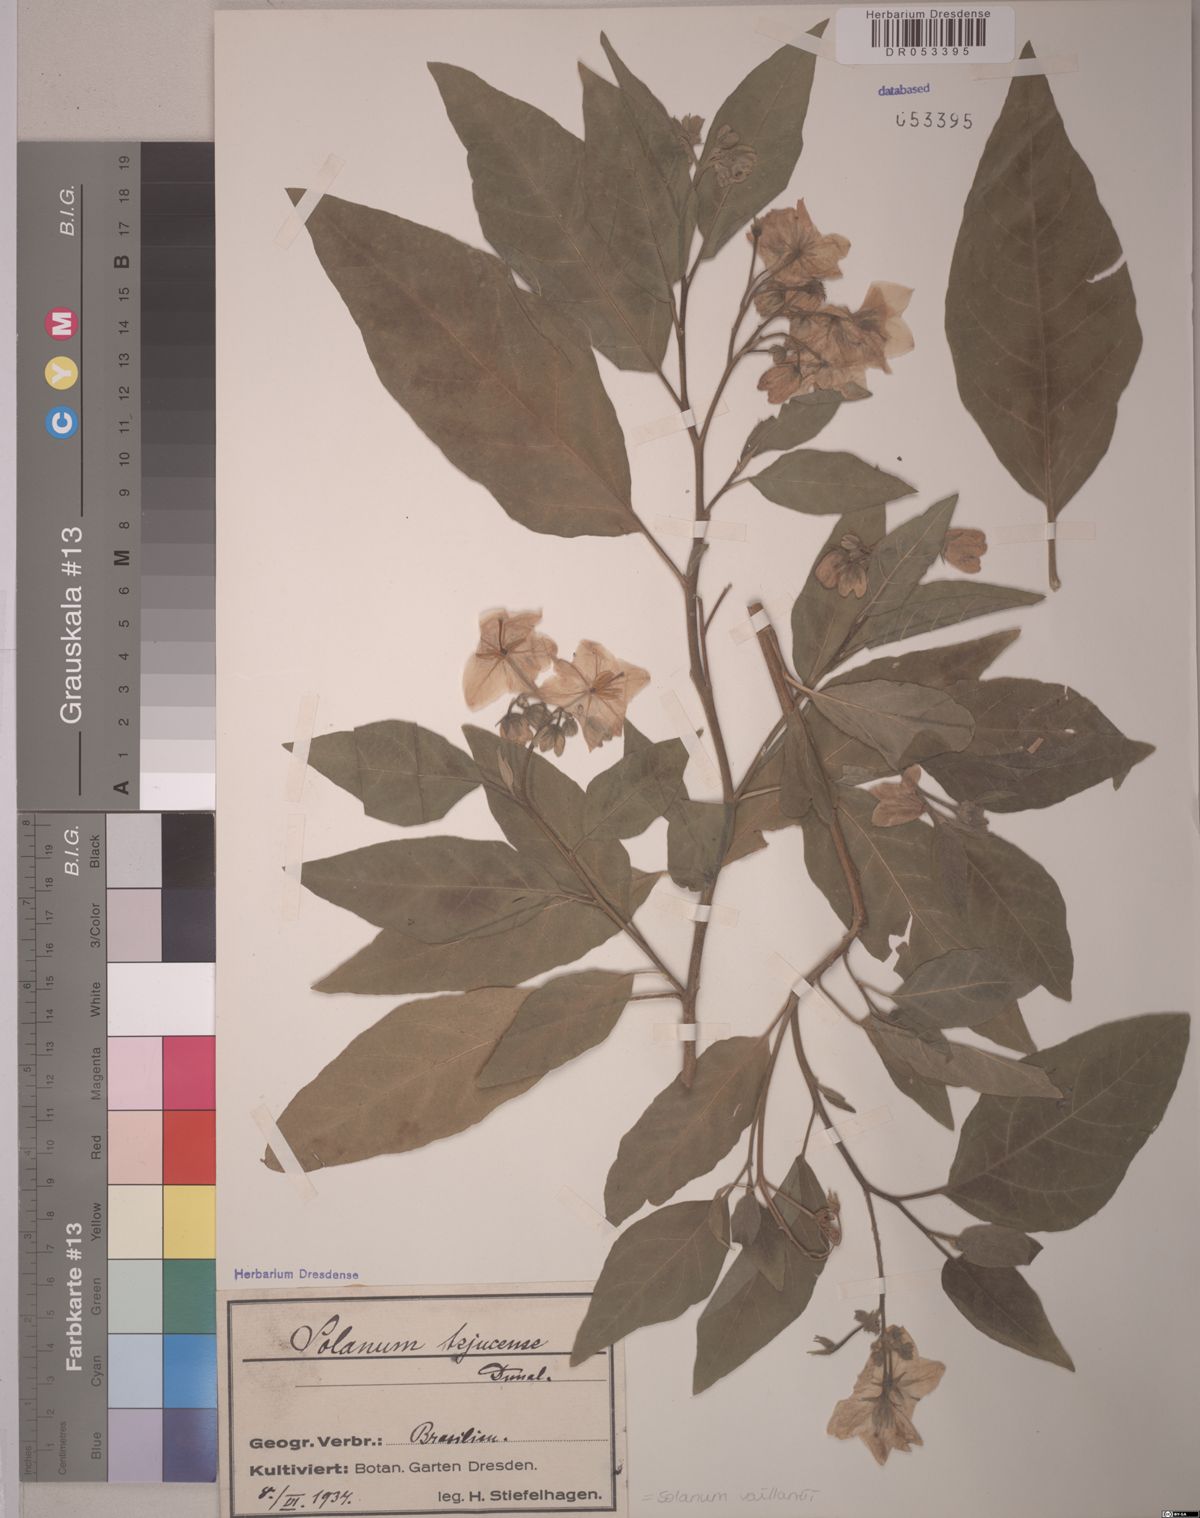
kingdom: Plantae
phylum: Tracheophyta
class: Magnoliopsida
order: Solanales
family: Solanaceae
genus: Solanum
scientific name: Solanum vaillantii
